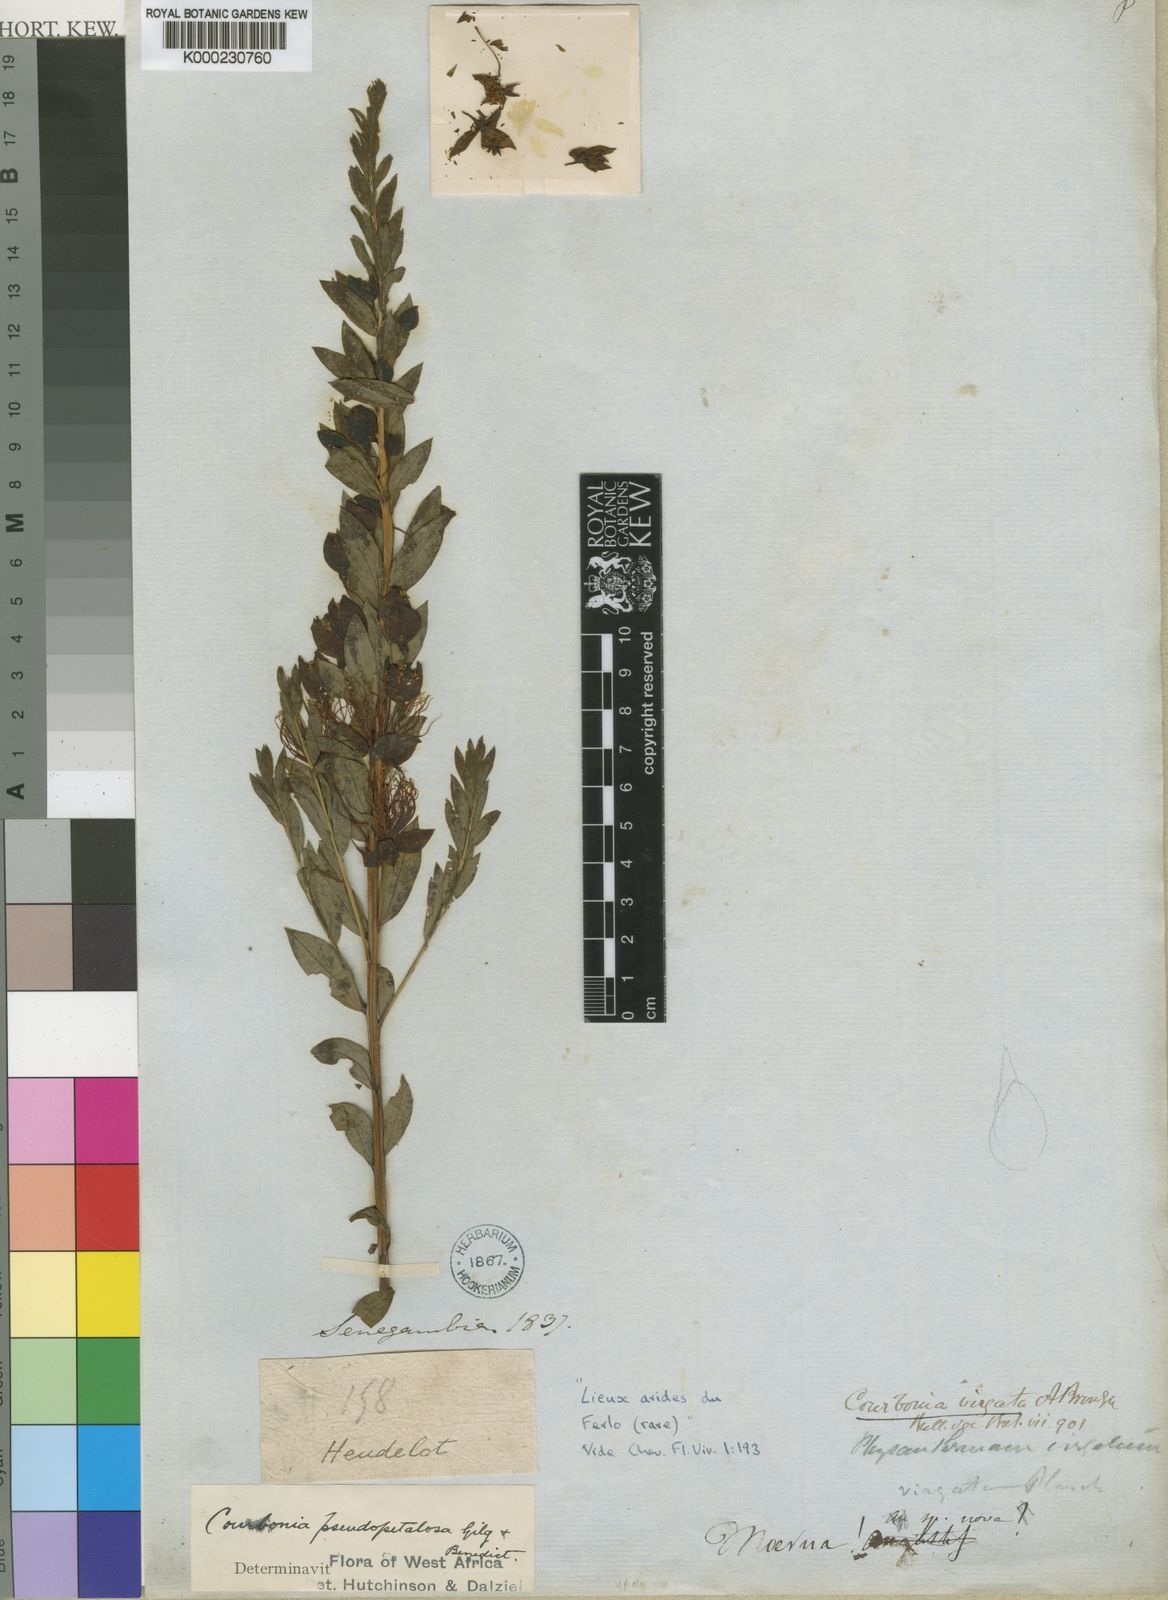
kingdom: Plantae
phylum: Tracheophyta
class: Magnoliopsida
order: Brassicales
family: Capparaceae
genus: Maerua
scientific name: Maerua pseudopetalosa
